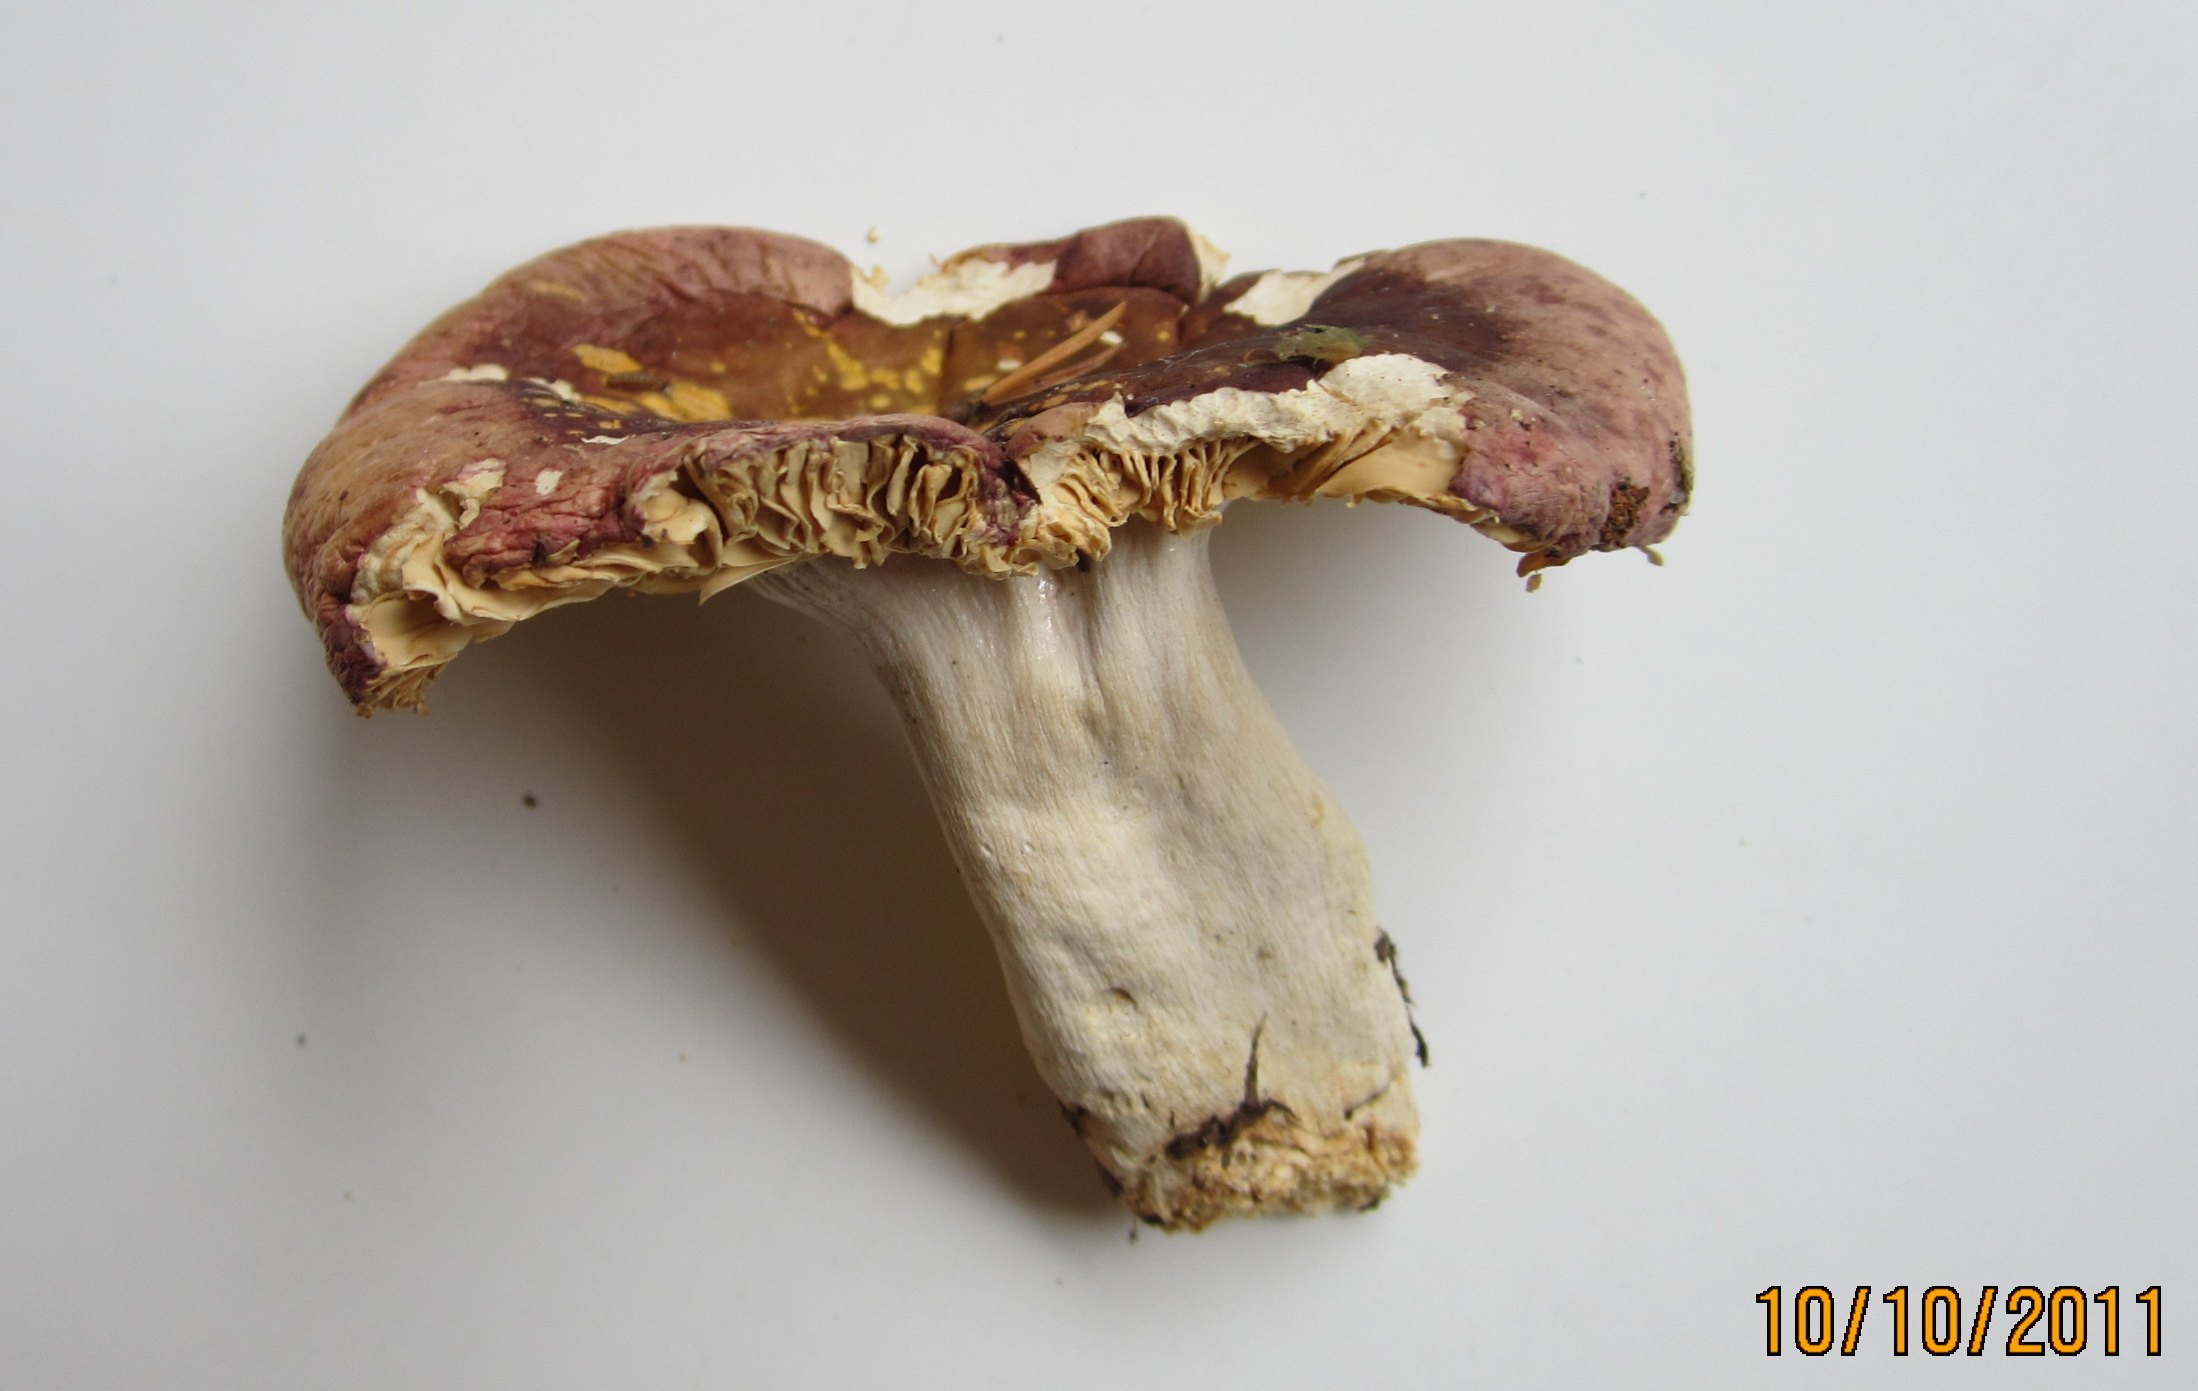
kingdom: Fungi
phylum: Basidiomycota
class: Agaricomycetes
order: Russulales
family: Russulaceae
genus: Russula
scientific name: Russula turci
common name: jod-skørhat
